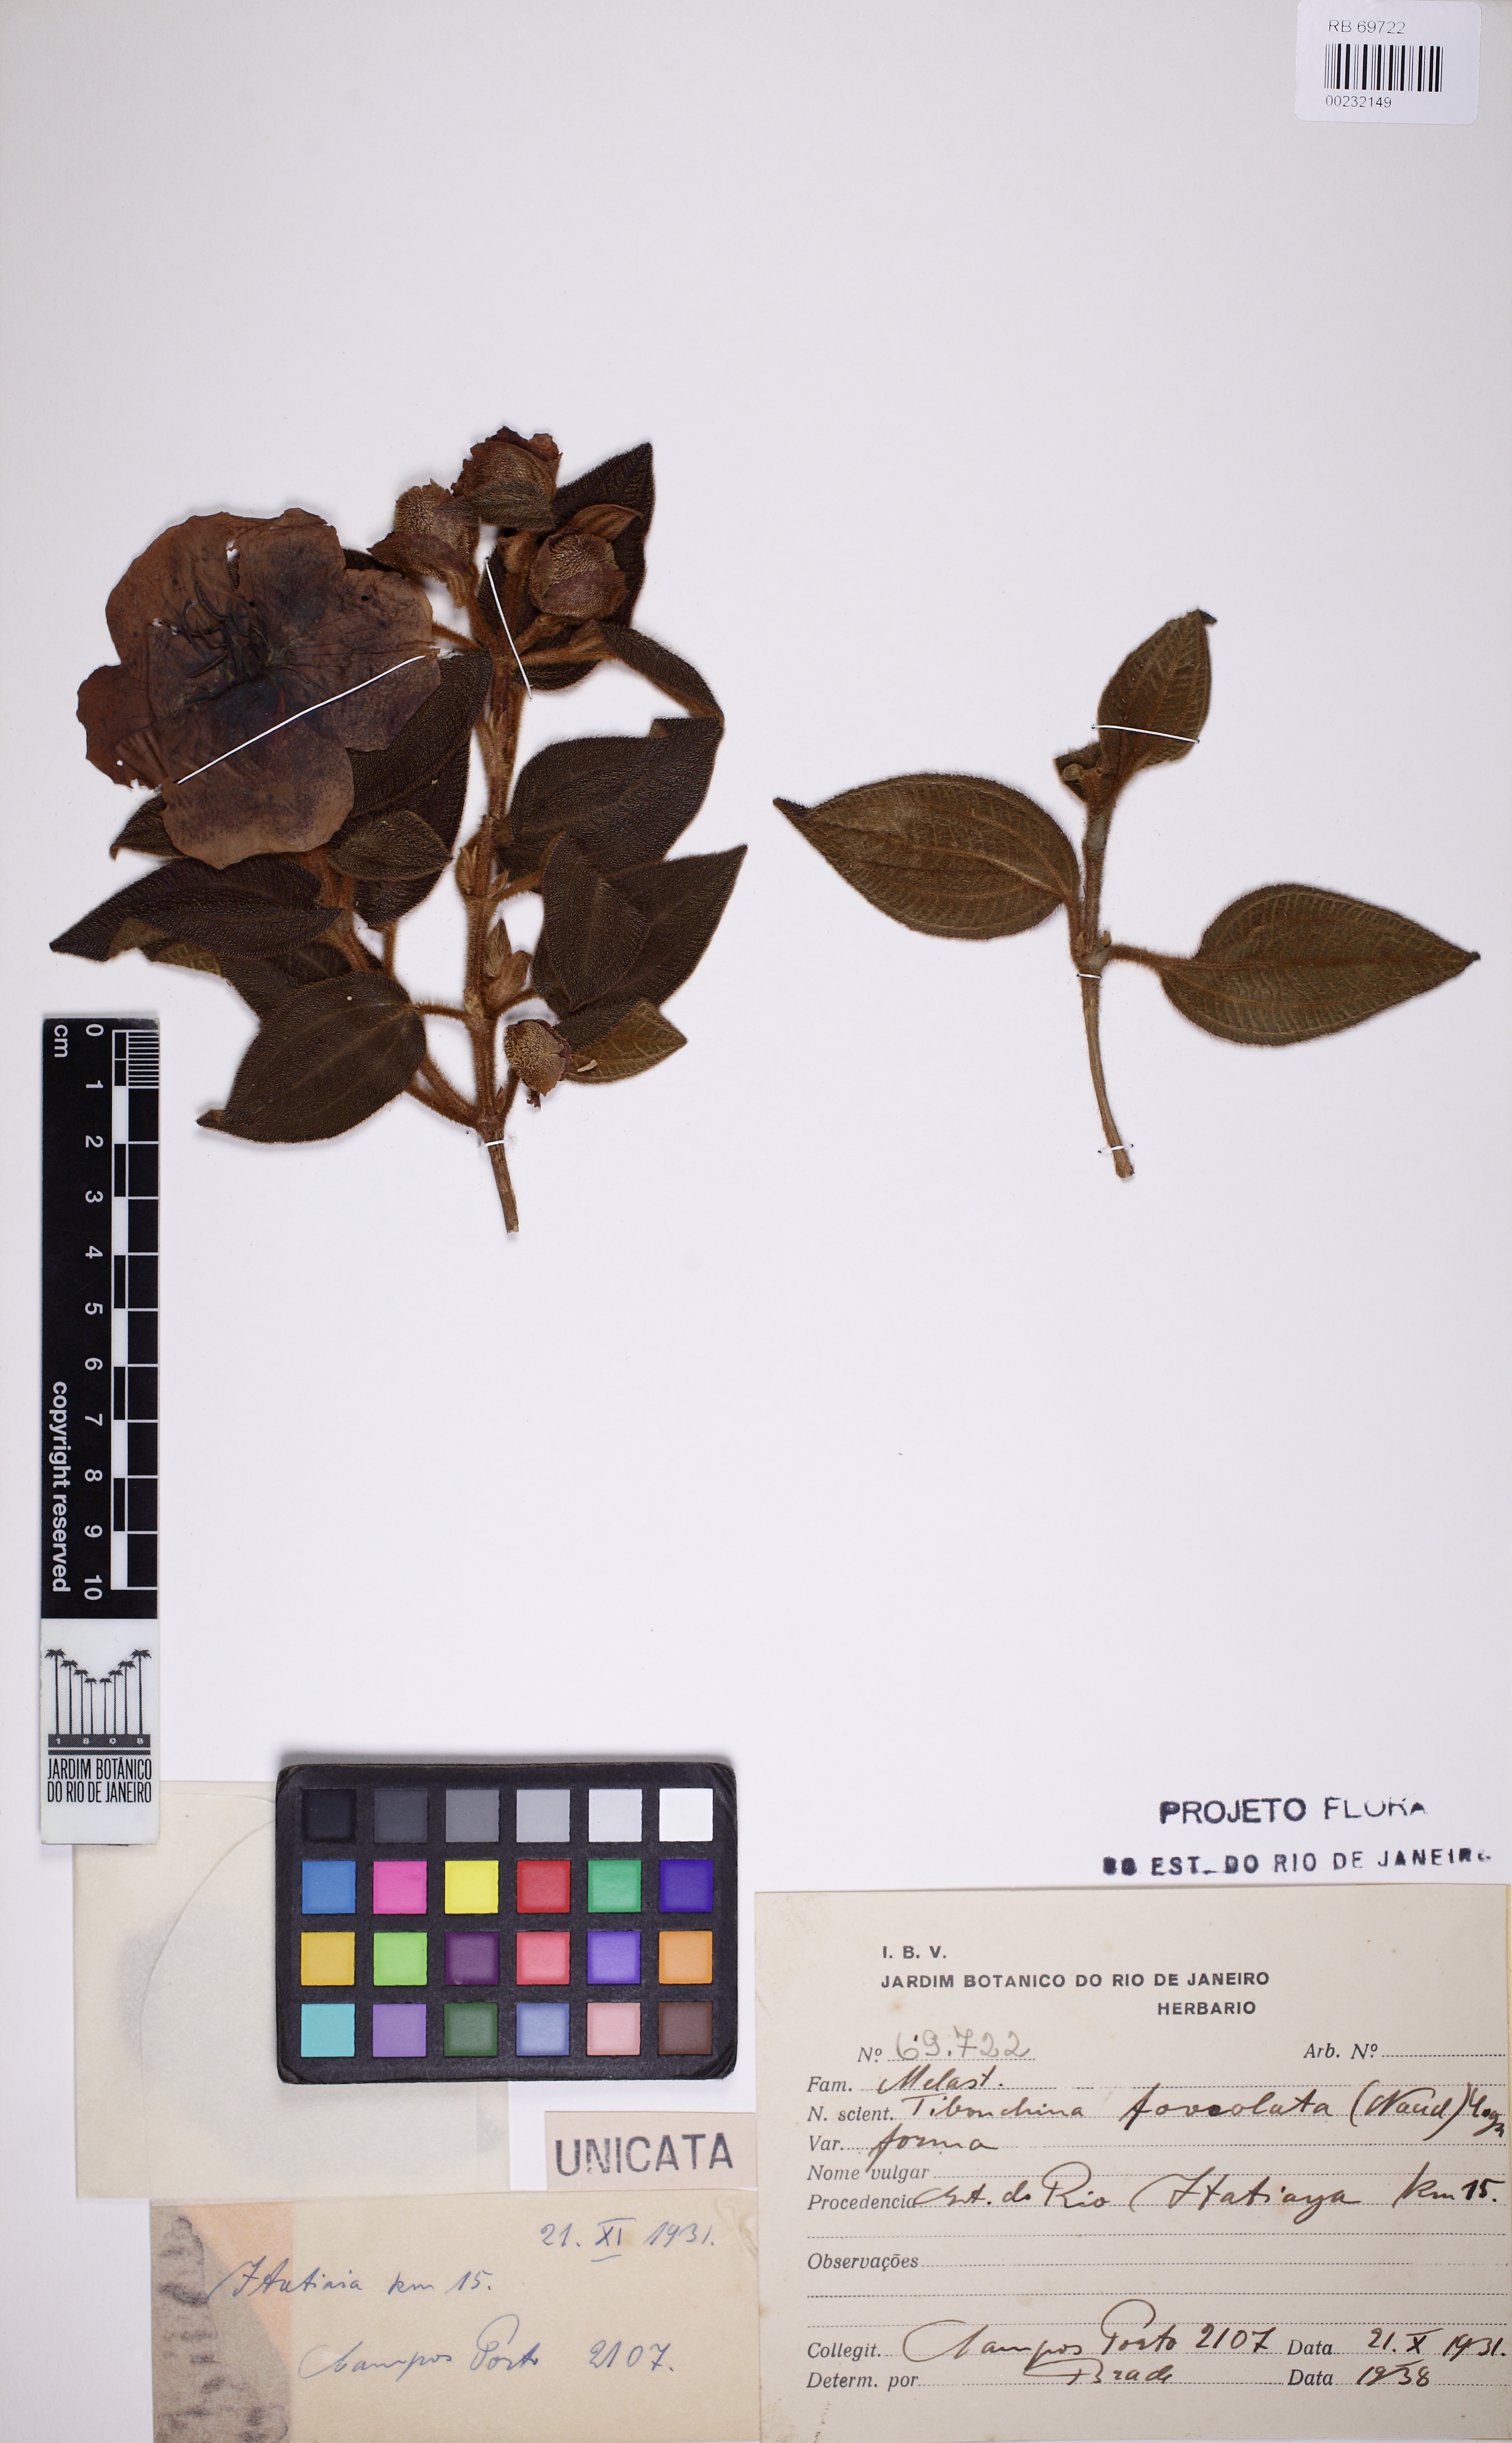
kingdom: Plantae
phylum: Tracheophyta
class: Magnoliopsida
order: Myrtales
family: Melastomataceae
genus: Pleroma
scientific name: Pleroma heteromallum
